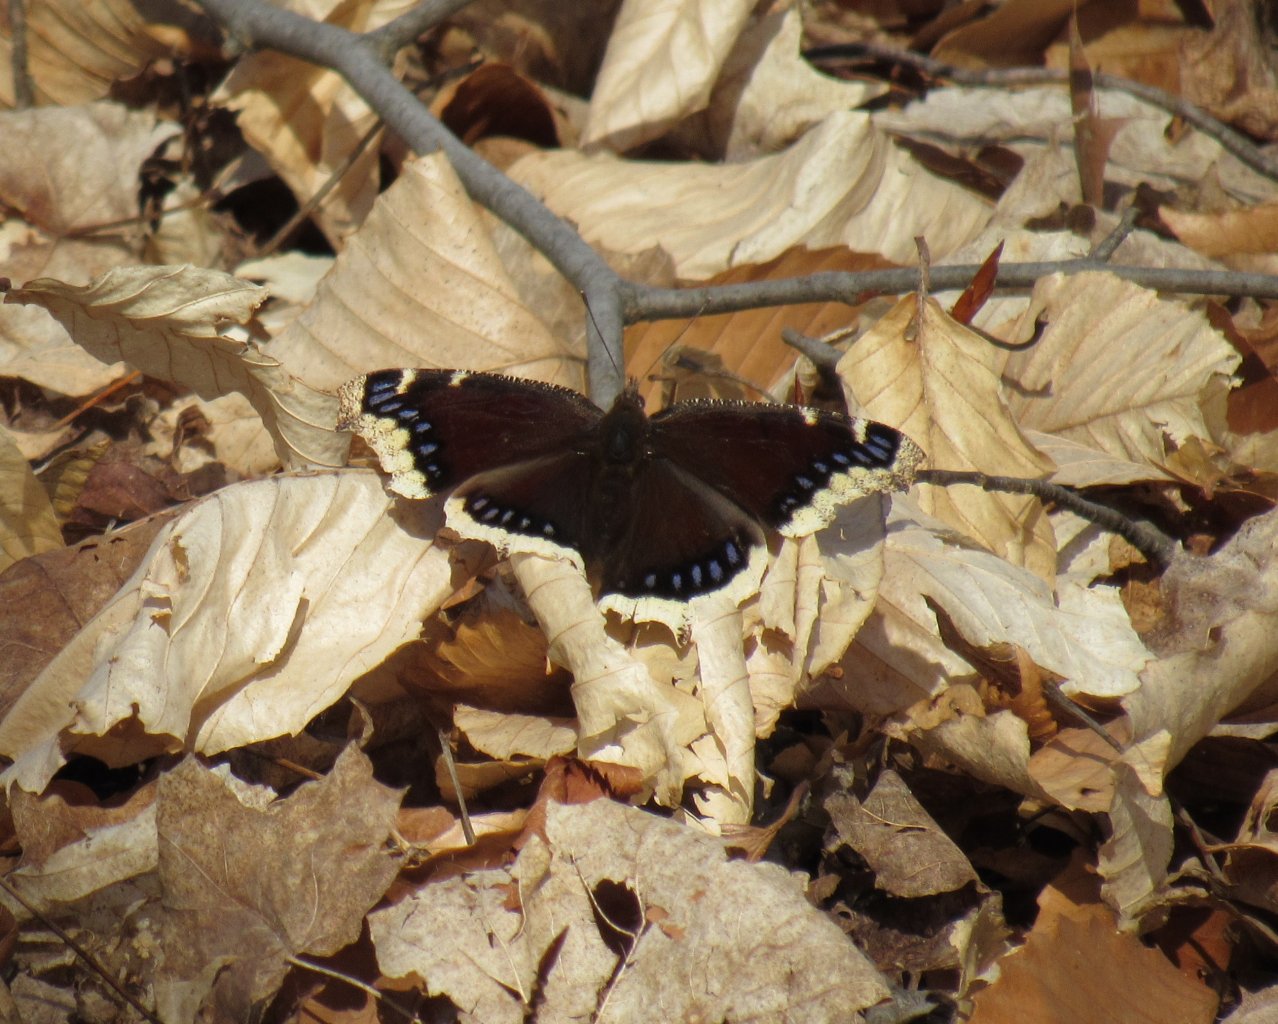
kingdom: Animalia
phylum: Arthropoda
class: Insecta
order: Lepidoptera
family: Nymphalidae
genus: Nymphalis
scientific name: Nymphalis antiopa
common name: Mourning Cloak
